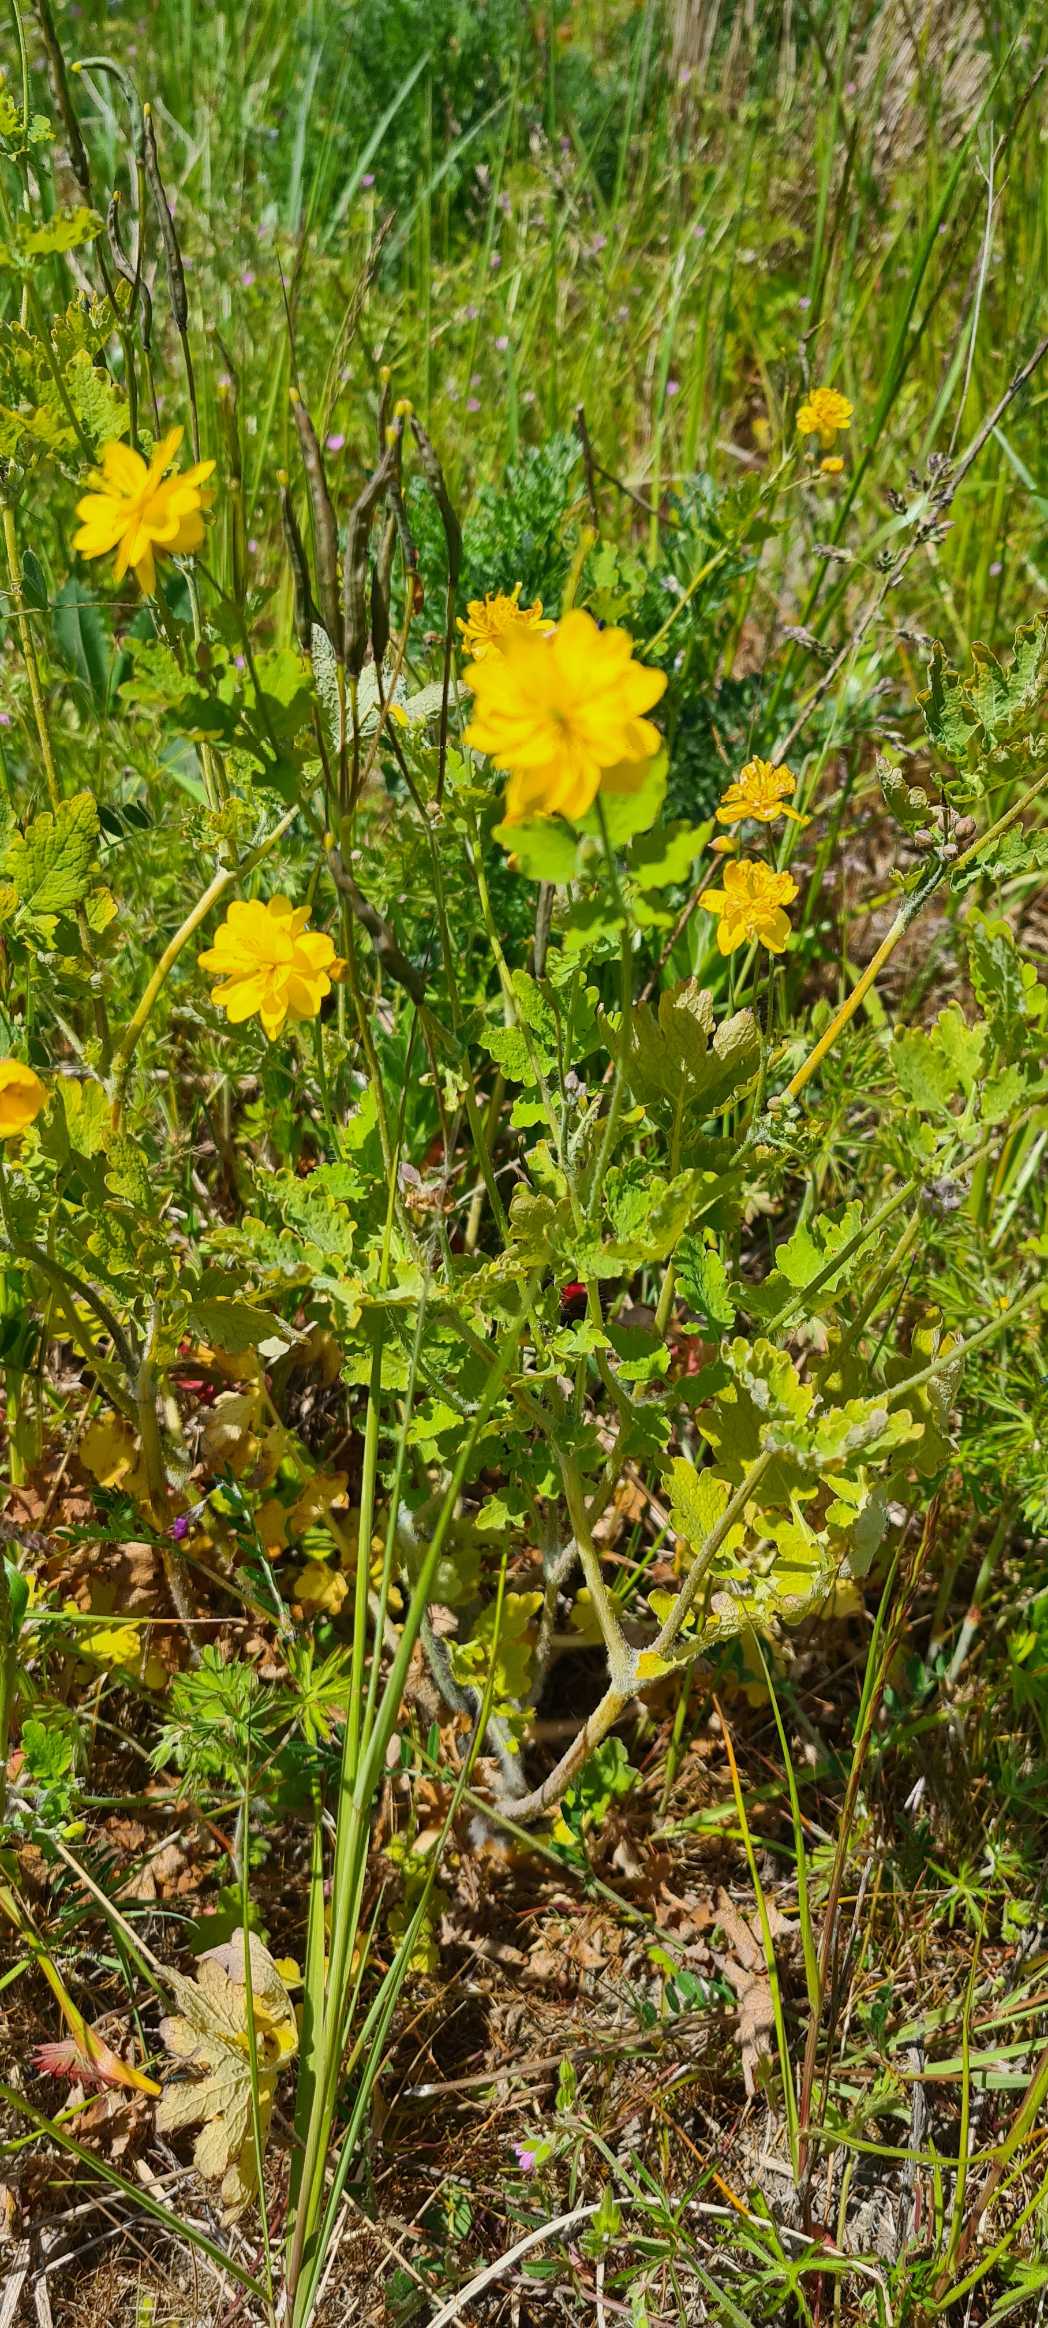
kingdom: Plantae
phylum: Tracheophyta
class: Magnoliopsida
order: Ranunculales
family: Papaveraceae
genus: Chelidonium
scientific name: Chelidonium majus
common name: Svaleurt
